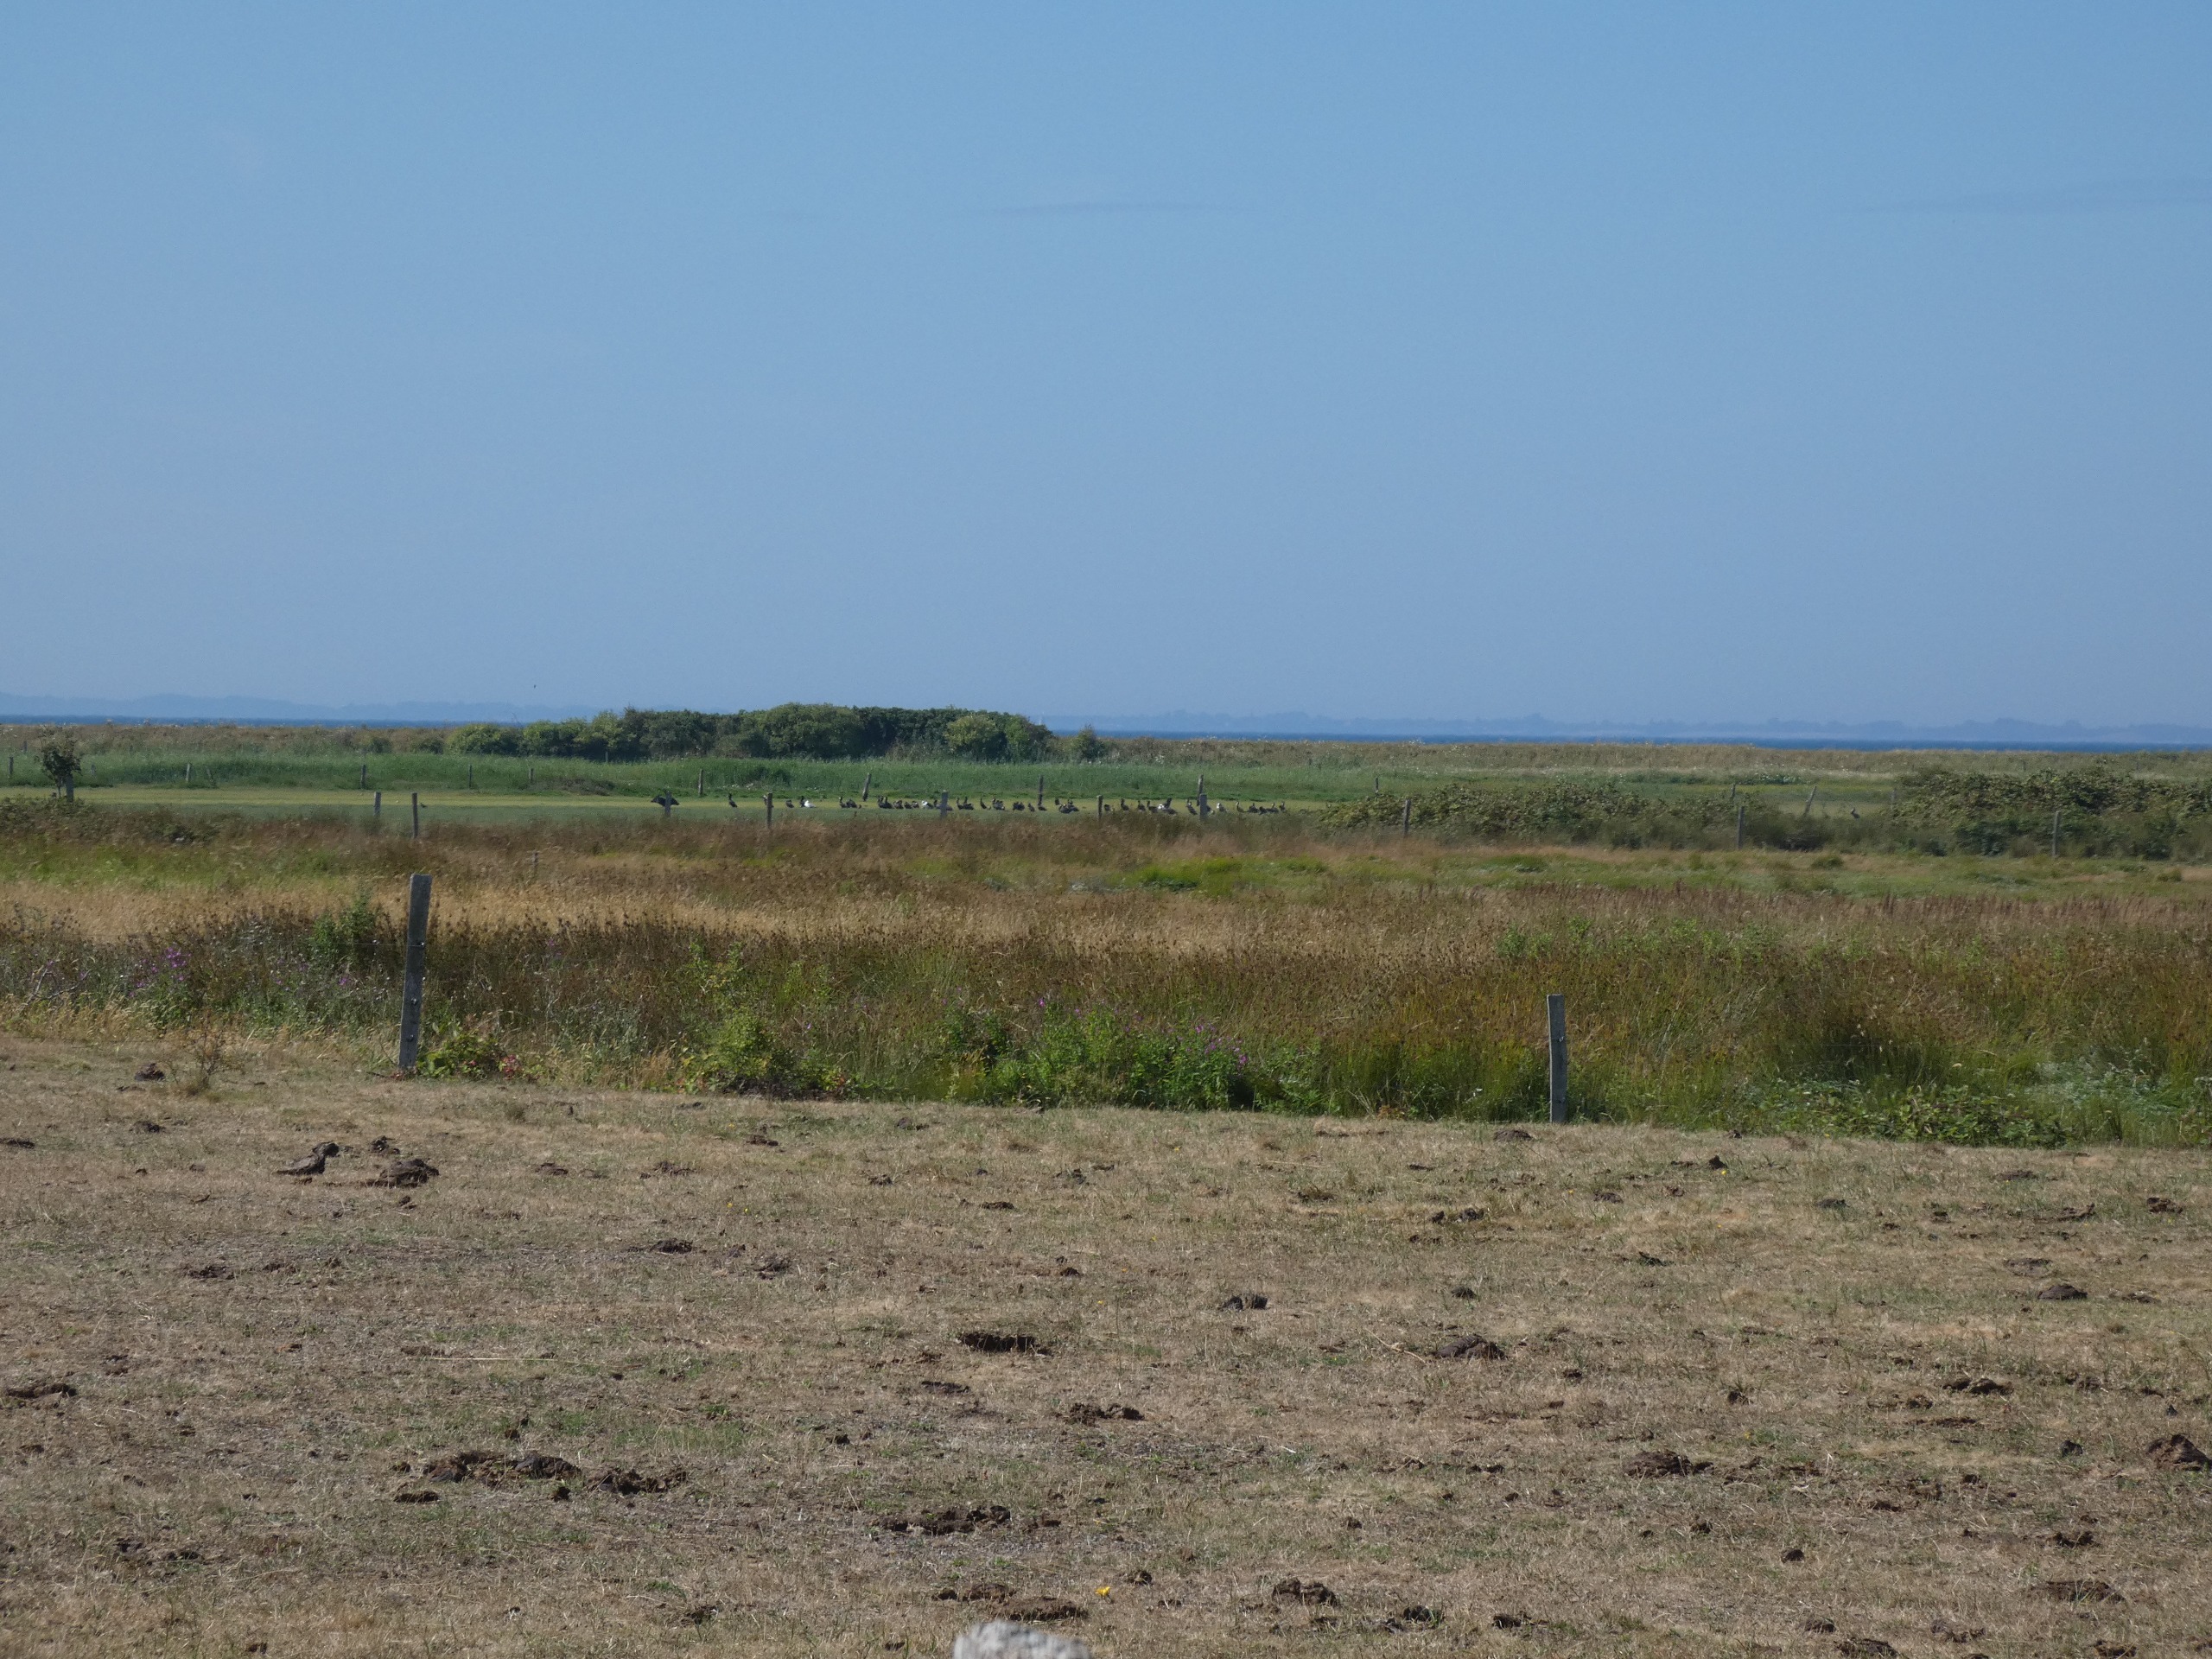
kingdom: Animalia
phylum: Chordata
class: Aves
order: Suliformes
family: Phalacrocoracidae
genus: Phalacrocorax
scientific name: Phalacrocorax carbo
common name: Skarv
